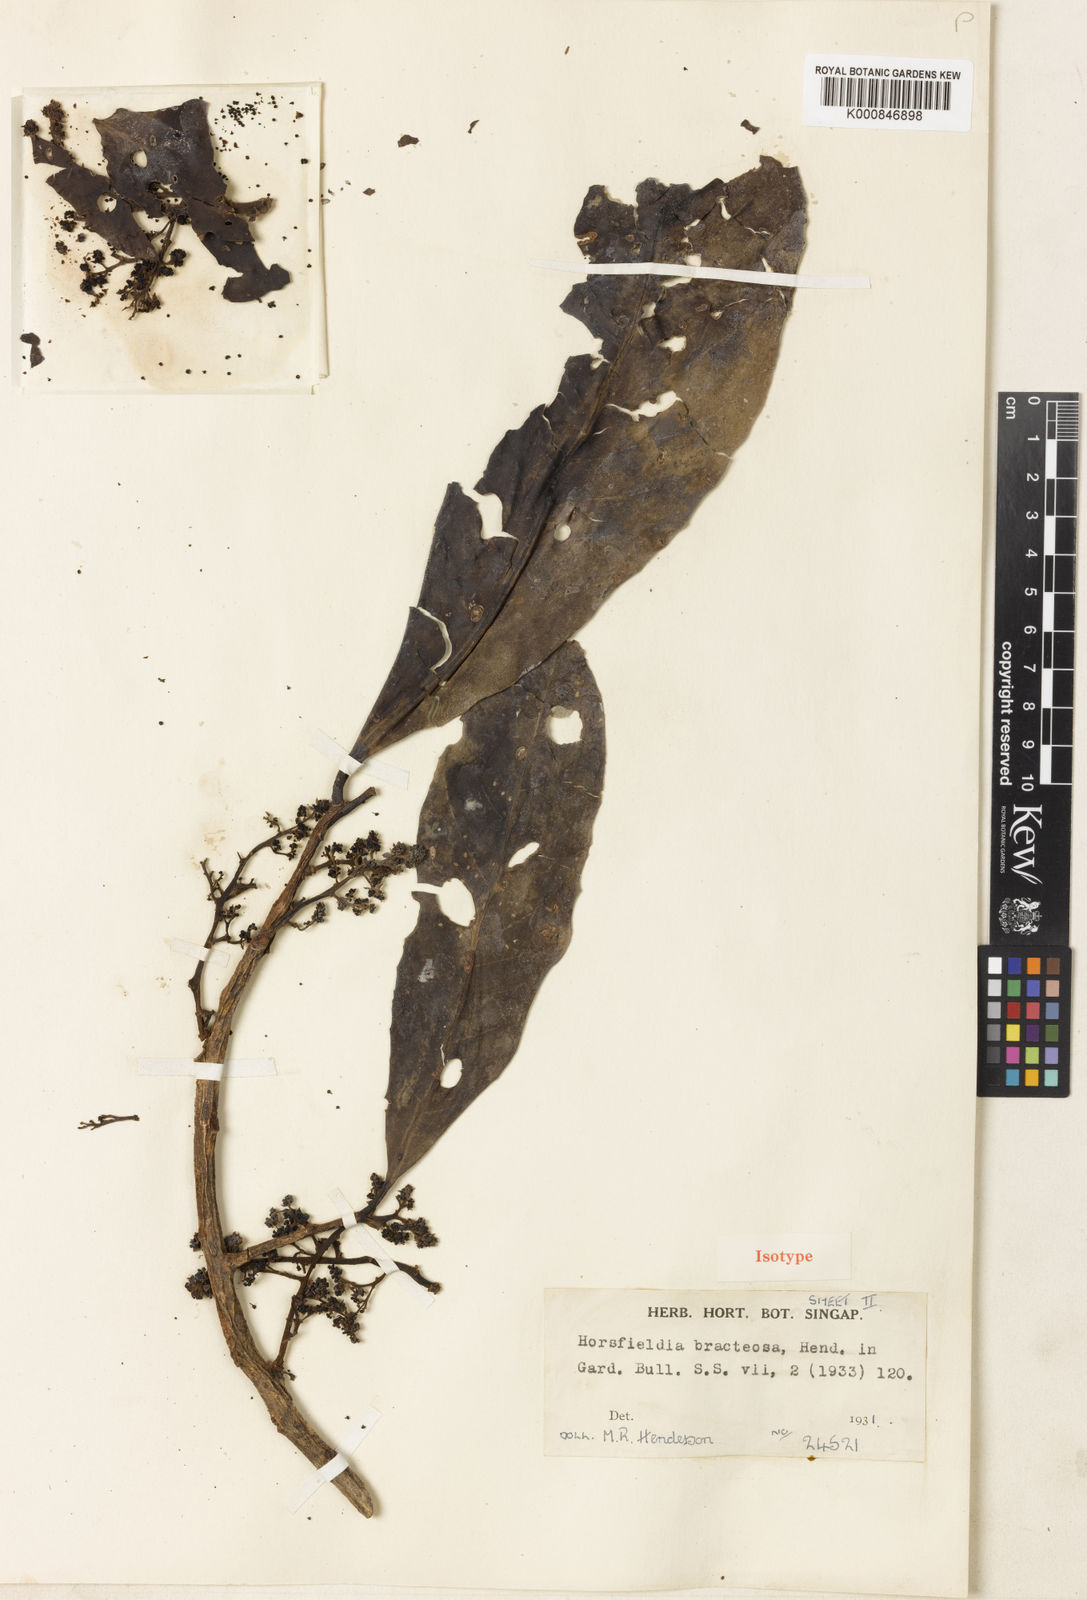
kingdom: Plantae
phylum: Tracheophyta
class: Magnoliopsida
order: Magnoliales
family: Myristicaceae
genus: Horsfieldia
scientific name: Horsfieldia sucosa
